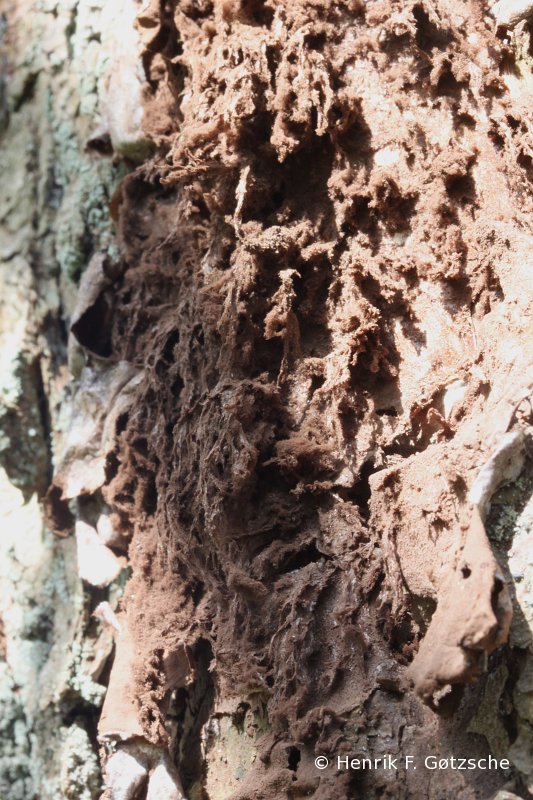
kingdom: Protozoa
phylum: Mycetozoa
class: Myxomycetes
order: Cribrariales
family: Tubiferaceae
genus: Reticularia
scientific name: Reticularia lycoperdon
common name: skinnende støvpude
